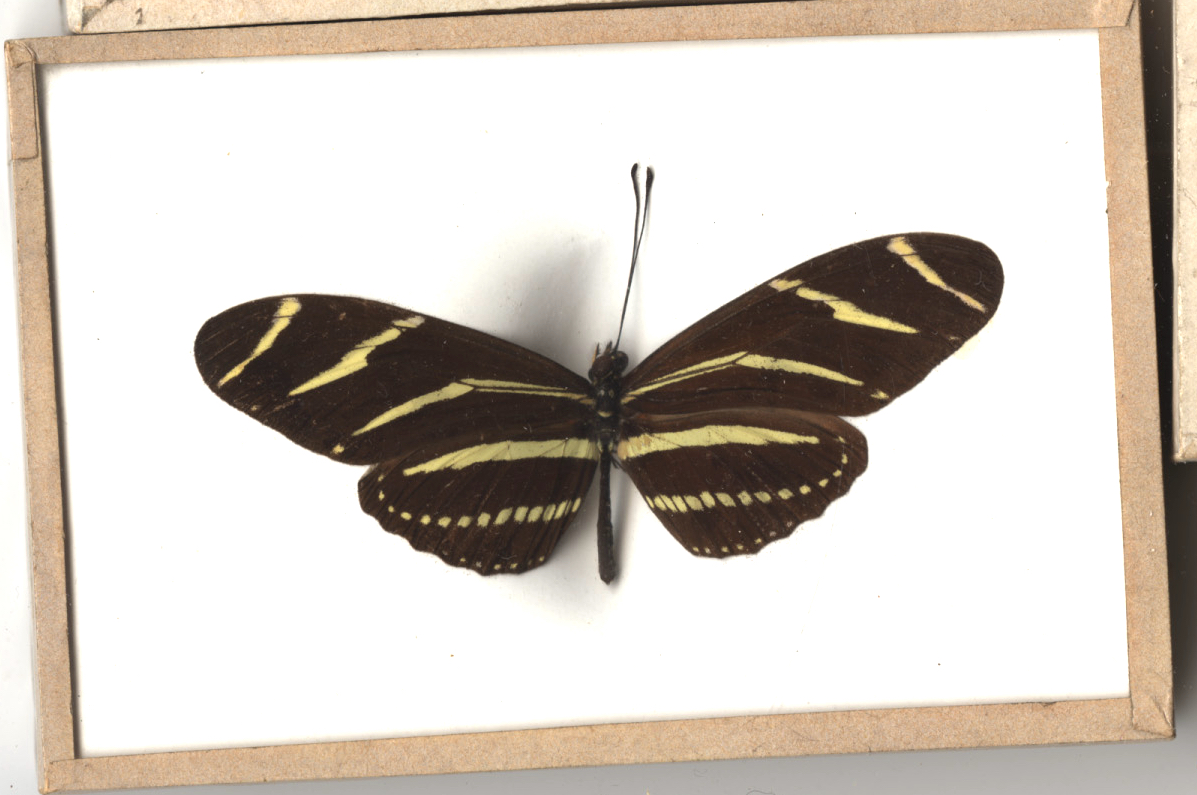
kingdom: Animalia
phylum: Arthropoda
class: Insecta
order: Lepidoptera
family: Nymphalidae
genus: Heliconius
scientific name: Heliconius charithonia
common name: Zebra
